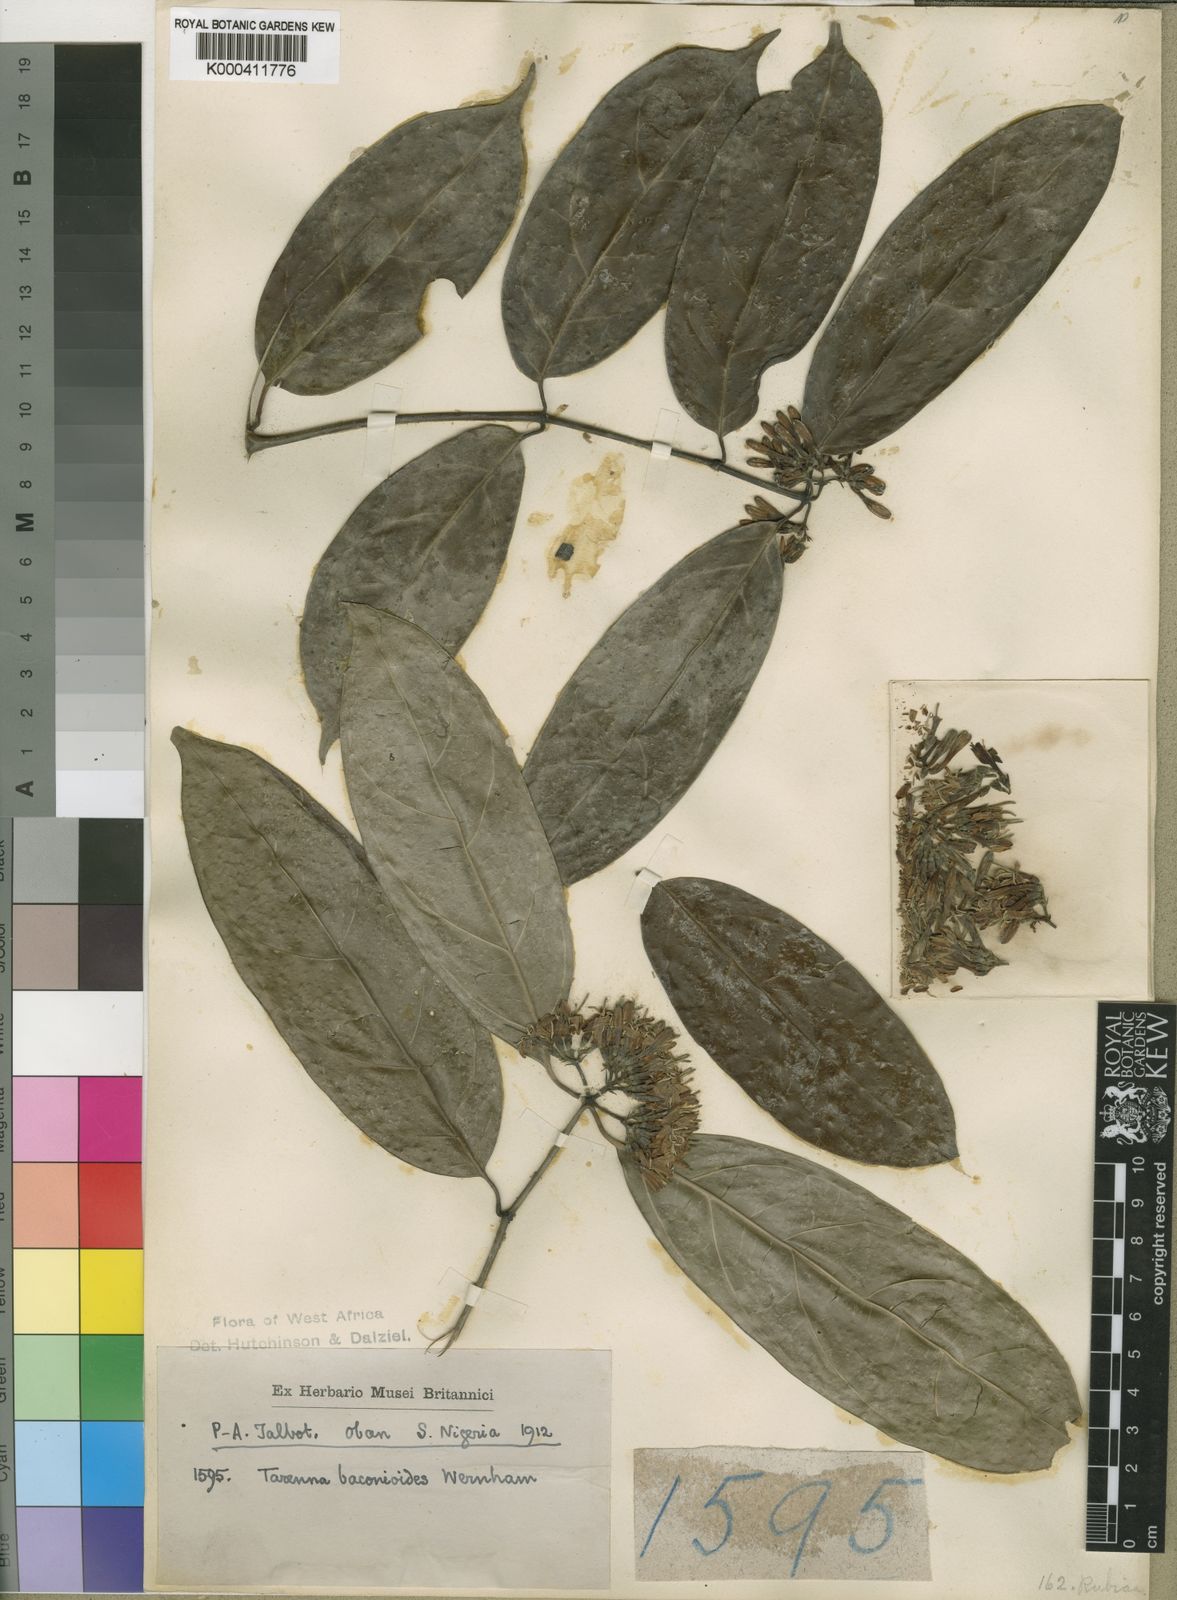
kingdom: Plantae
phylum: Tracheophyta
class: Magnoliopsida
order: Gentianales
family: Rubiaceae
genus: Tarenna
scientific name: Tarenna
